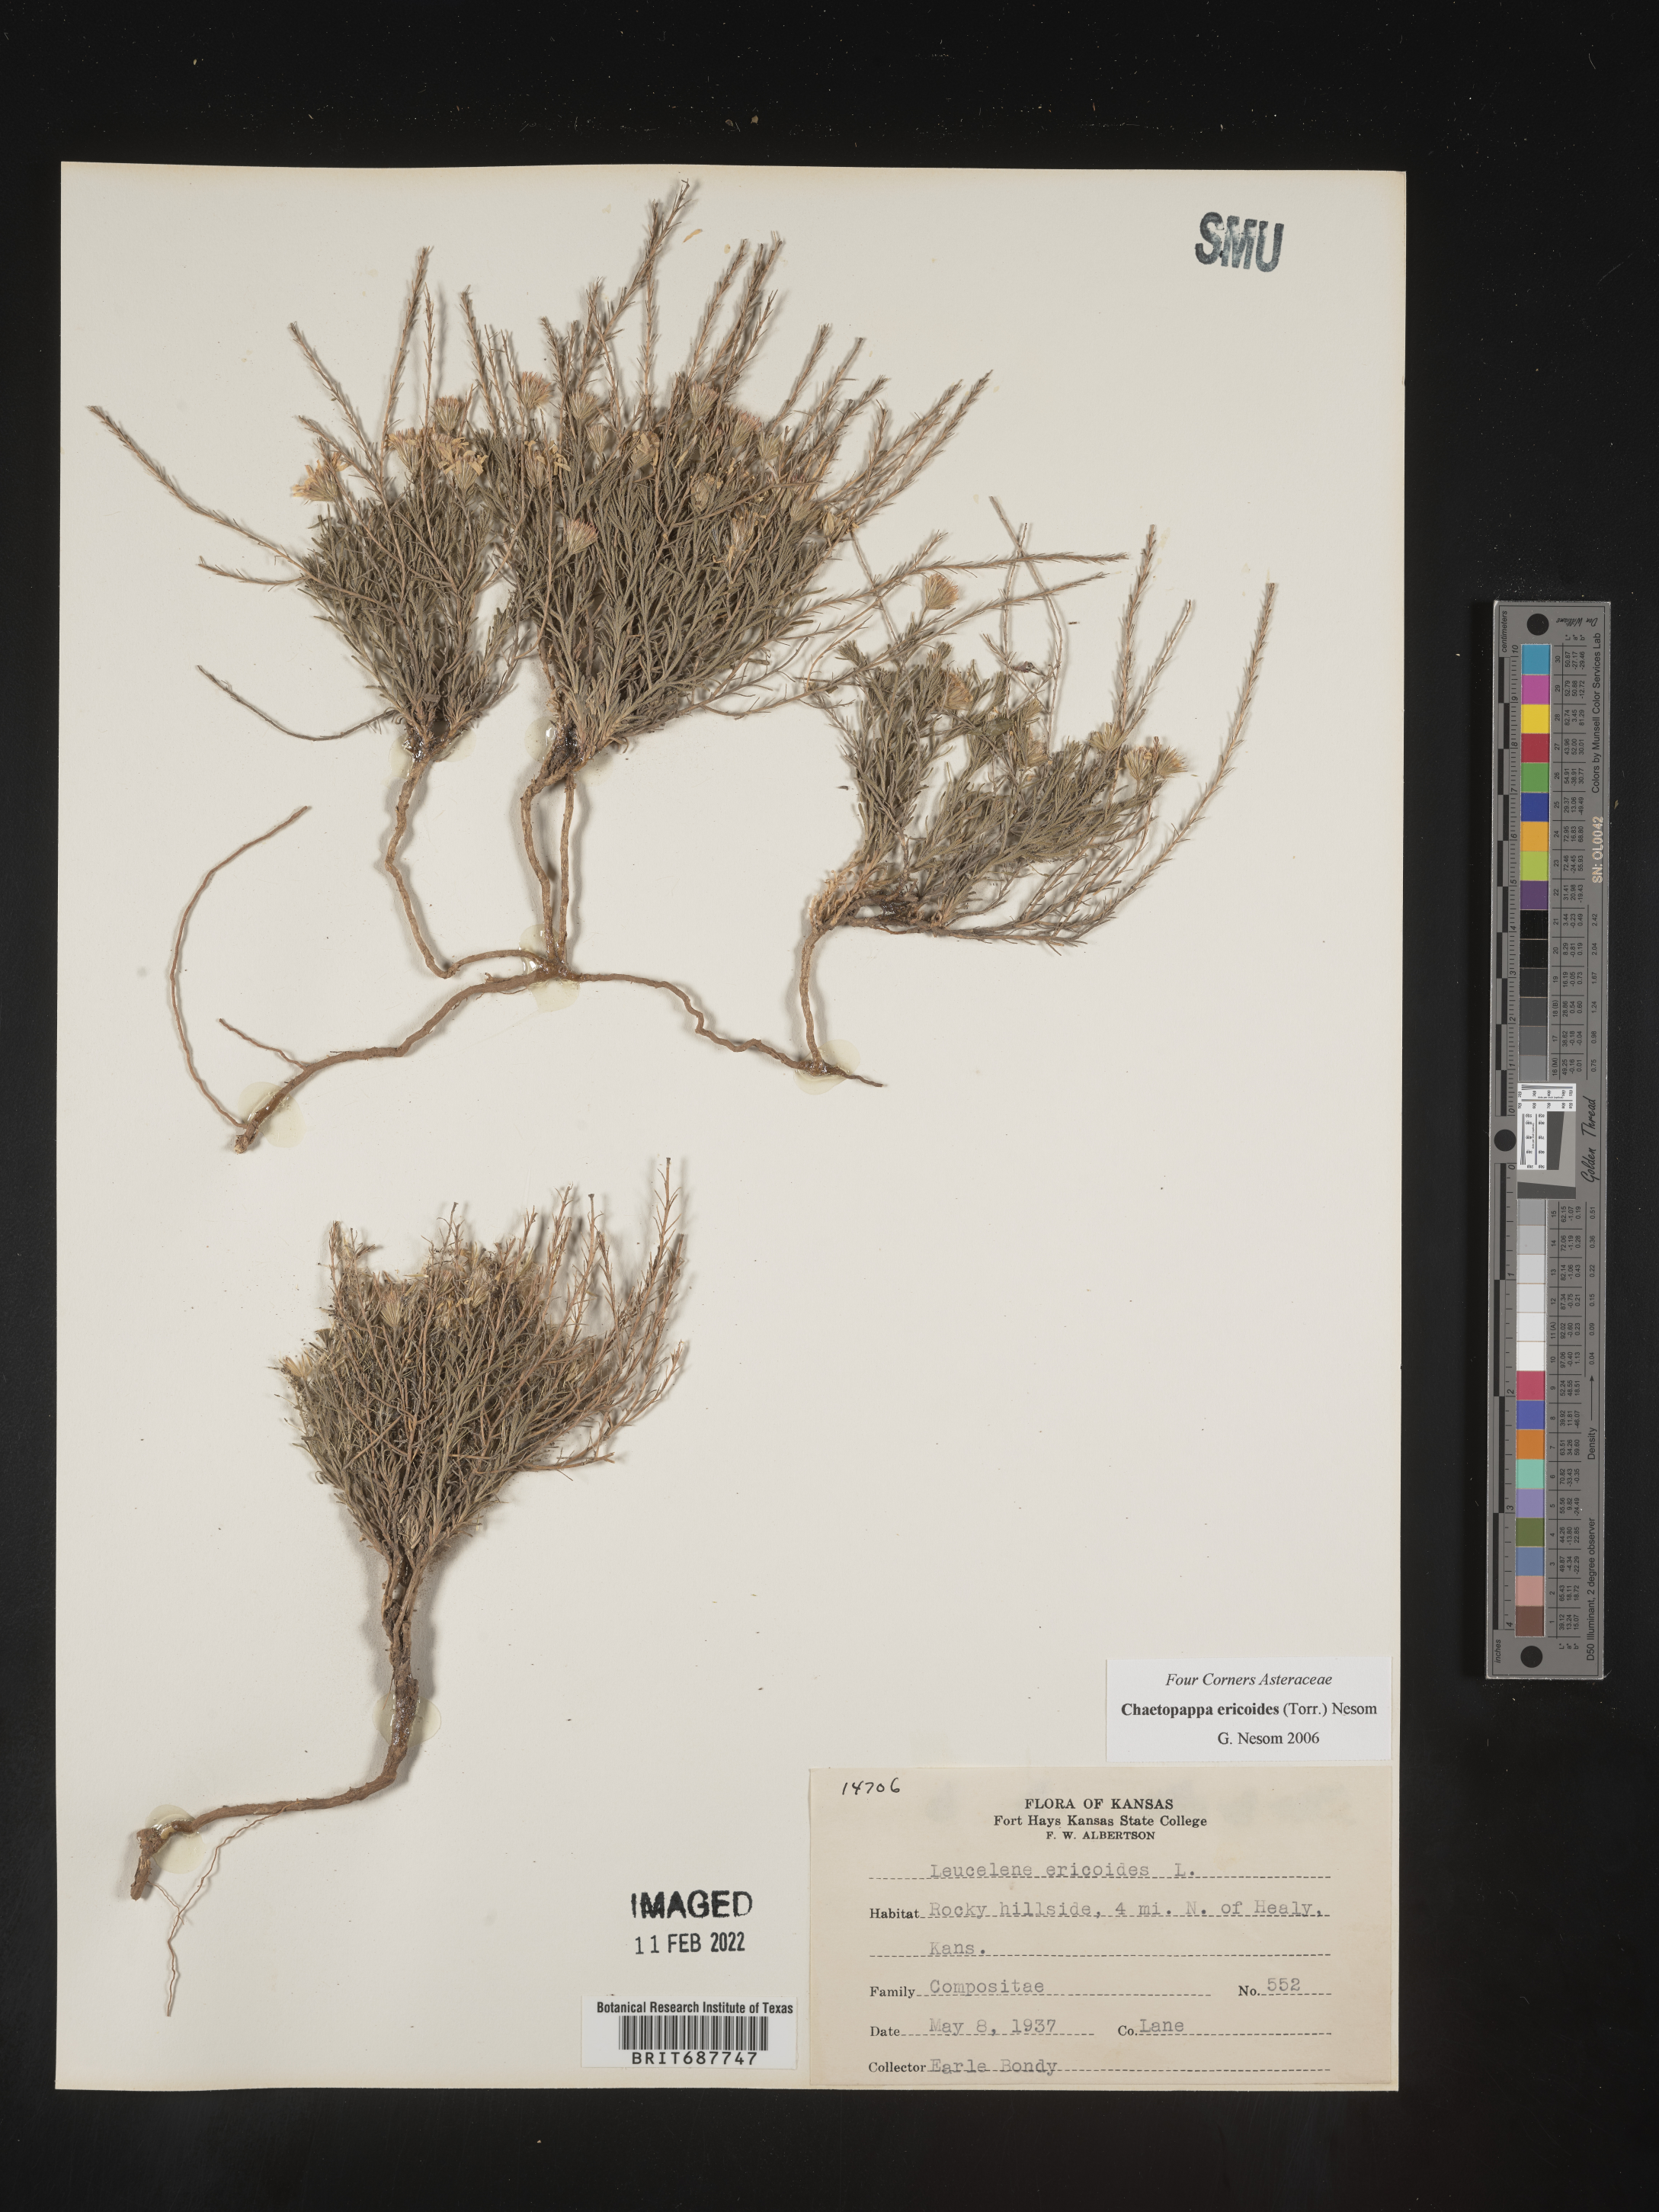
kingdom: Plantae
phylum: Tracheophyta
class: Magnoliopsida
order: Asterales
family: Asteraceae
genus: Chaetopappa
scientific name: Chaetopappa ericoides
